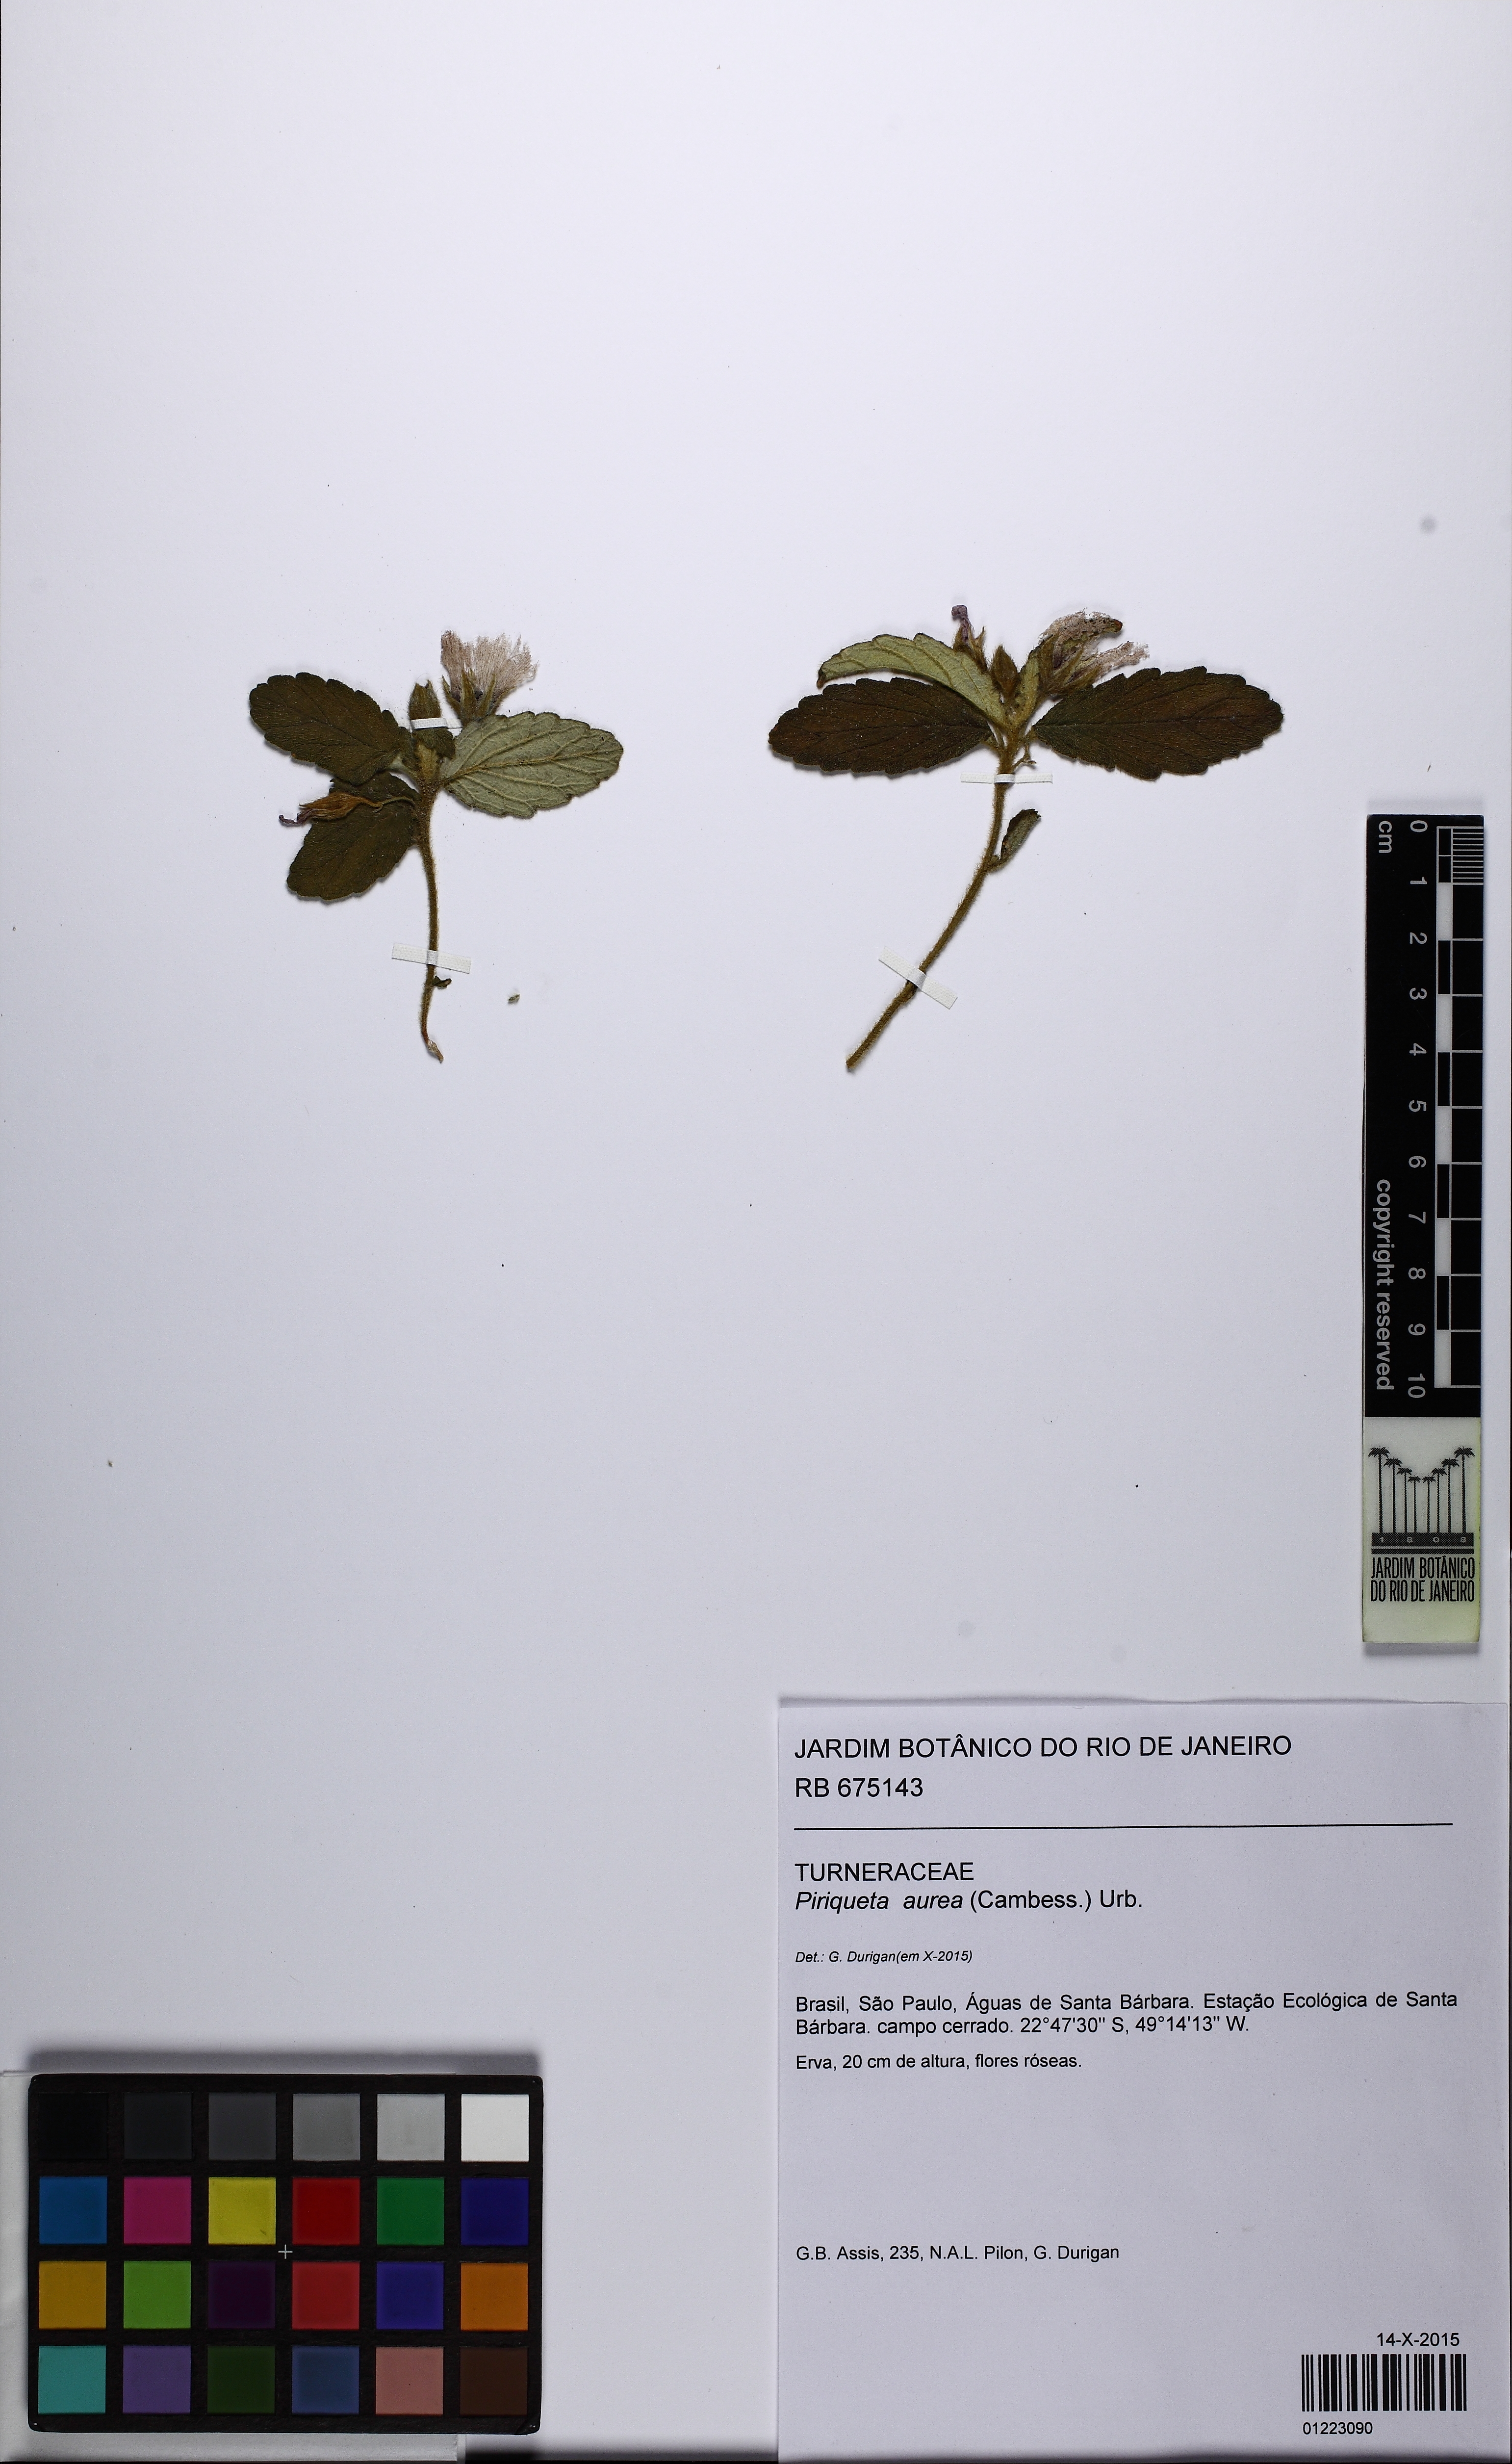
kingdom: Plantae
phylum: Tracheophyta
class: Magnoliopsida
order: Malpighiales
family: Turneraceae
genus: Piriqueta
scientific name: Piriqueta aurea
